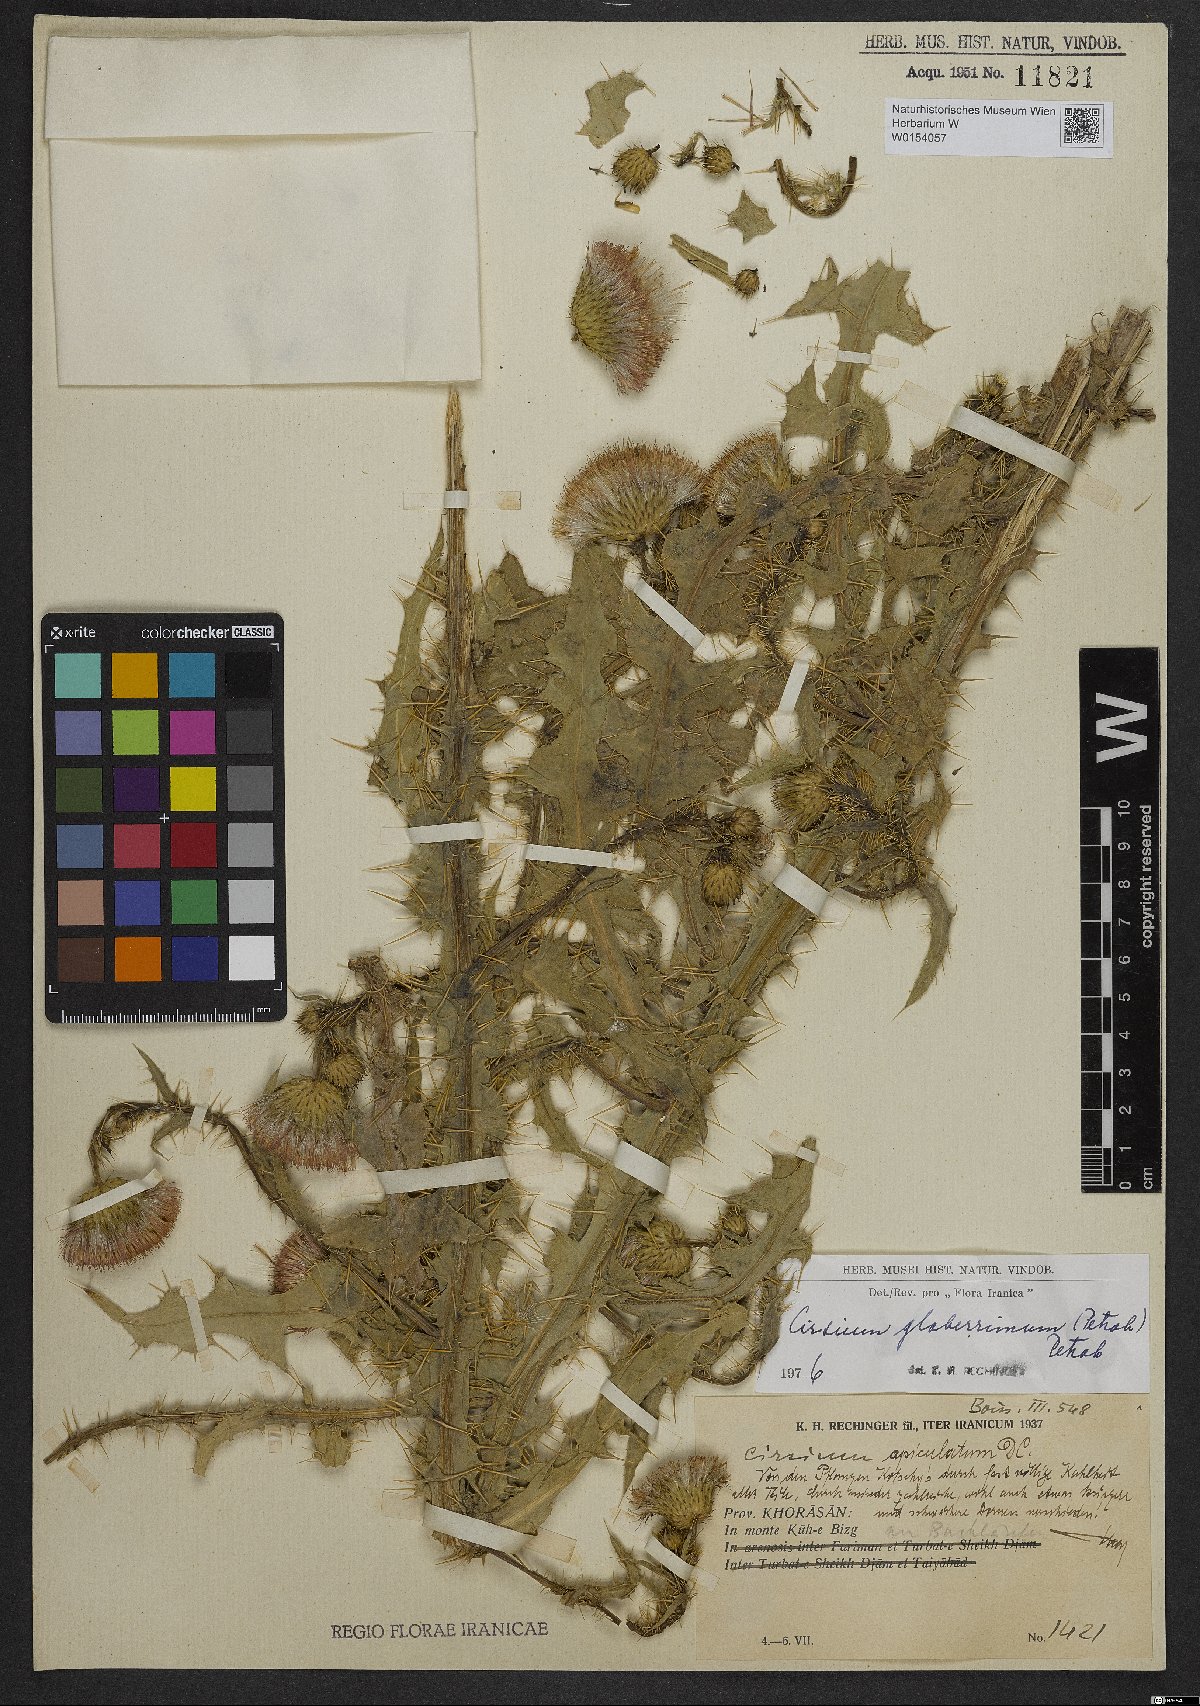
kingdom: Plantae
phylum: Tracheophyta
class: Magnoliopsida
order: Asterales
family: Asteraceae
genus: Cirsium
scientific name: Cirsium glaberrimum
